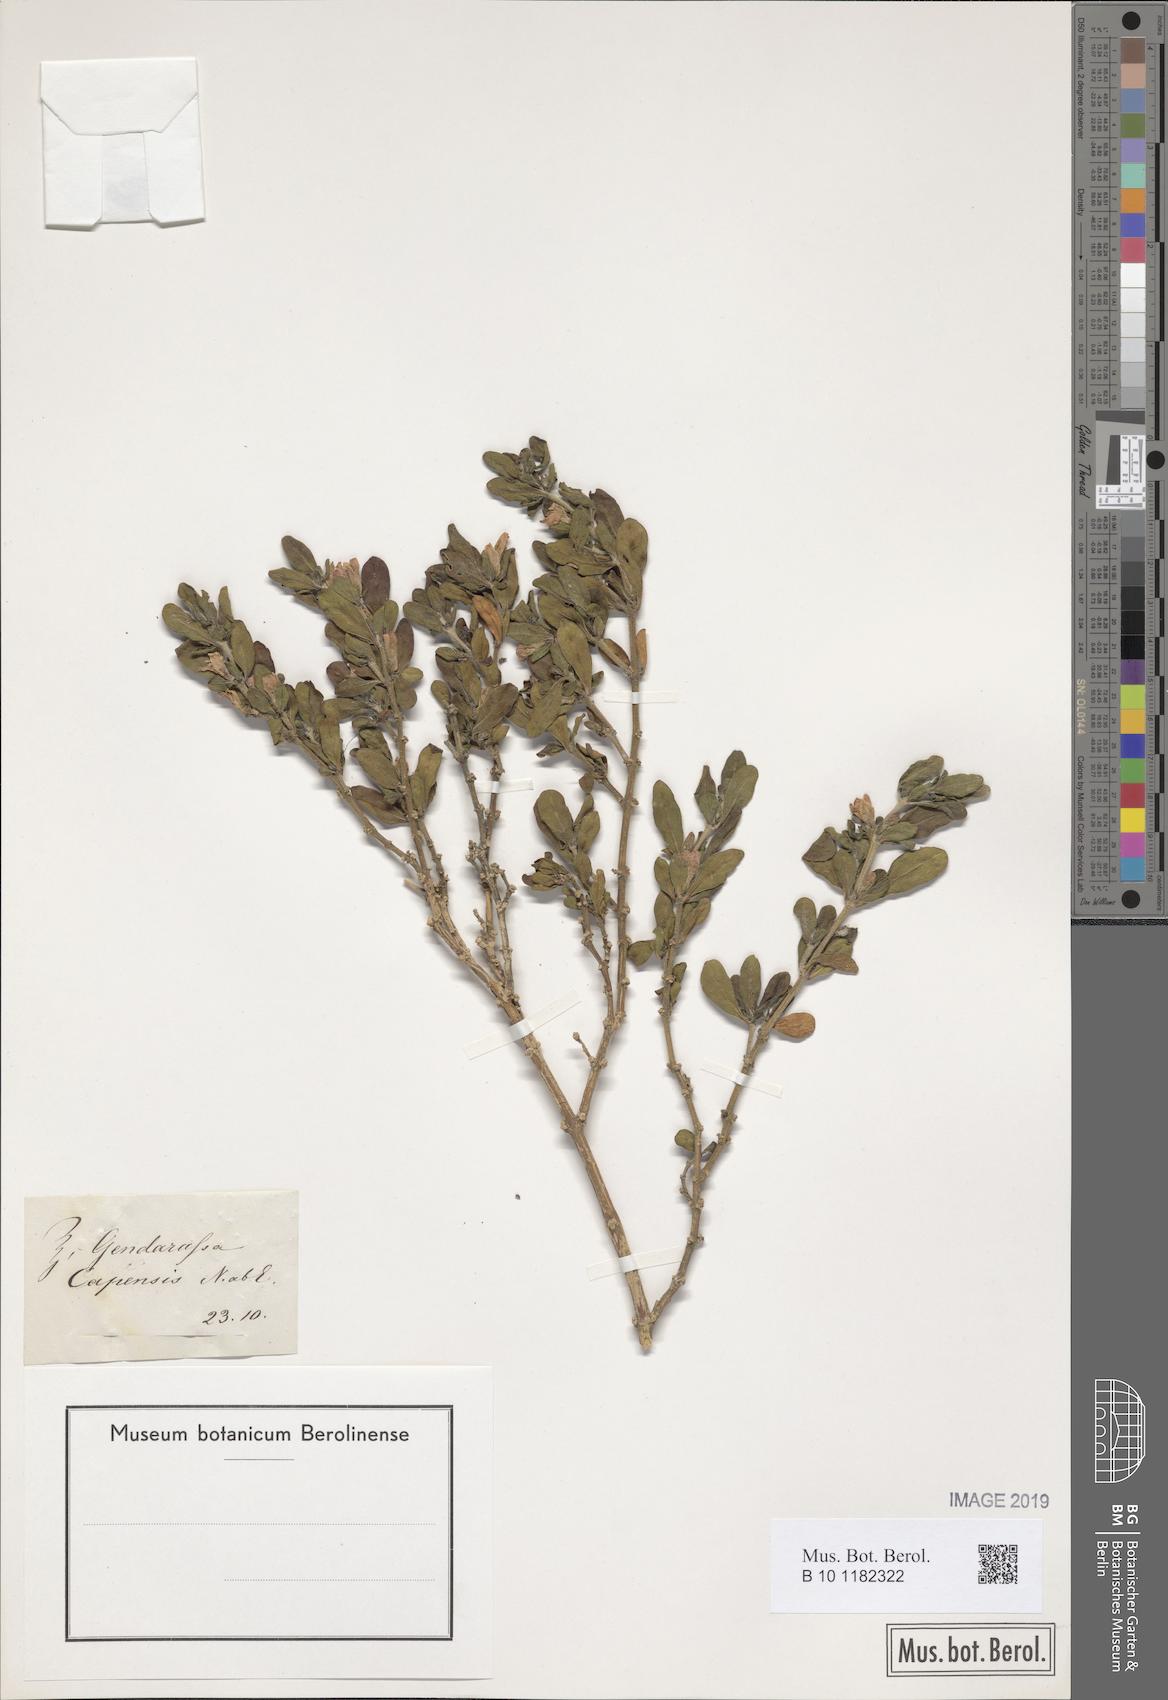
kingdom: Plantae
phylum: Tracheophyta
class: Magnoliopsida
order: Lamiales
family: Acanthaceae
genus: Justicia
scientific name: Justicia capensis
